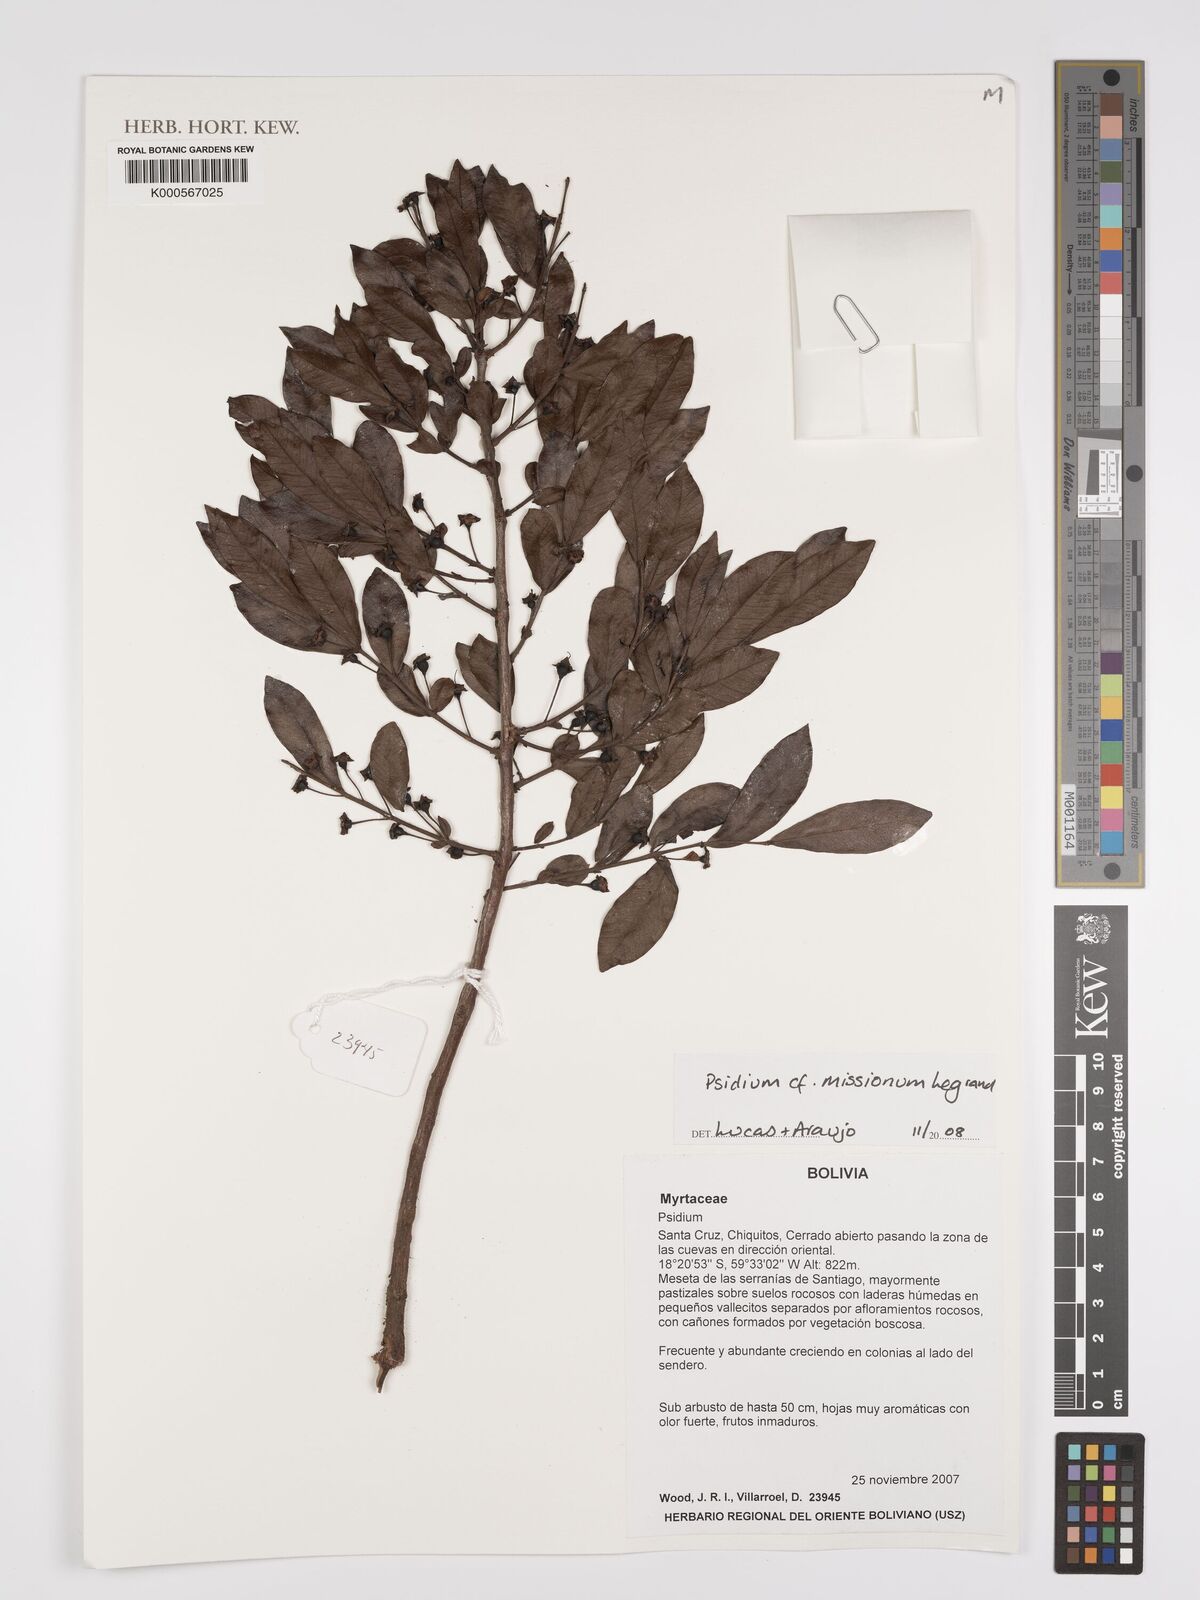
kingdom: Plantae
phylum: Tracheophyta
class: Magnoliopsida
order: Myrtales
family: Myrtaceae
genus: Psidium
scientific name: Psidium
